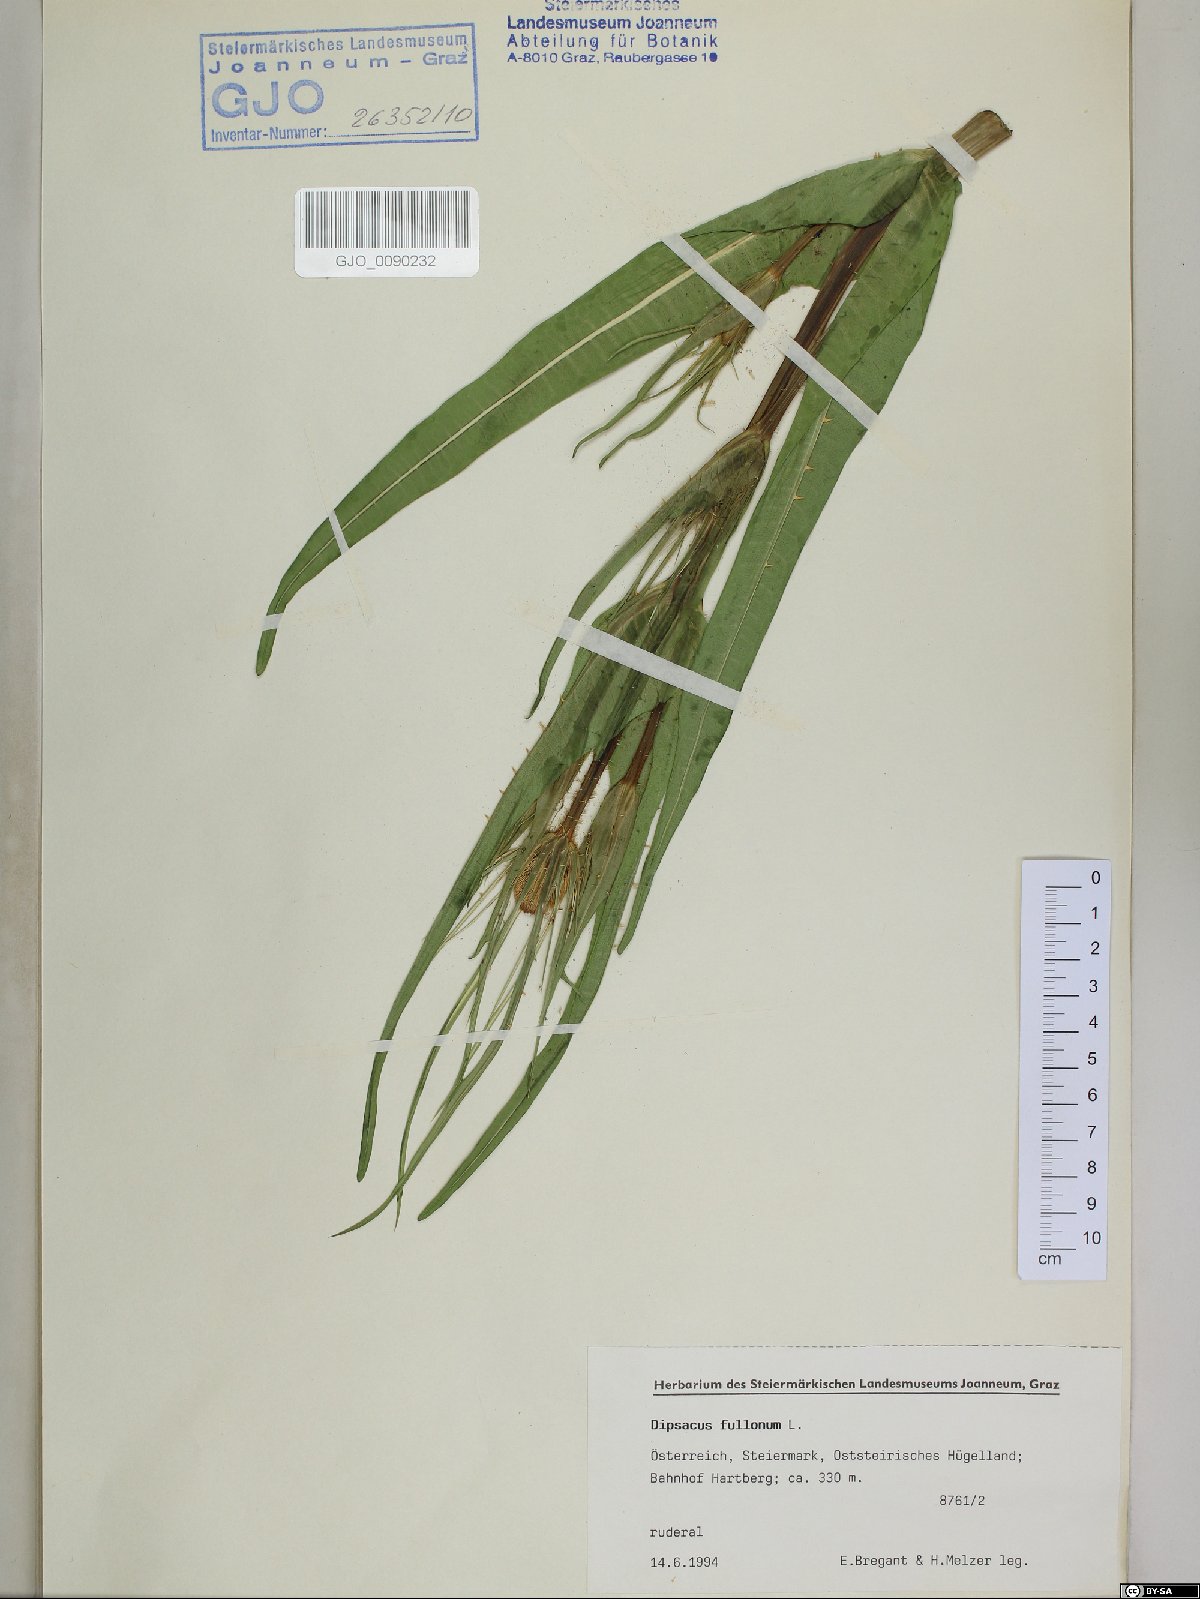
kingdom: Plantae
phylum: Tracheophyta
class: Magnoliopsida
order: Dipsacales
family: Caprifoliaceae
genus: Dipsacus
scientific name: Dipsacus fullonum
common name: Teasel
